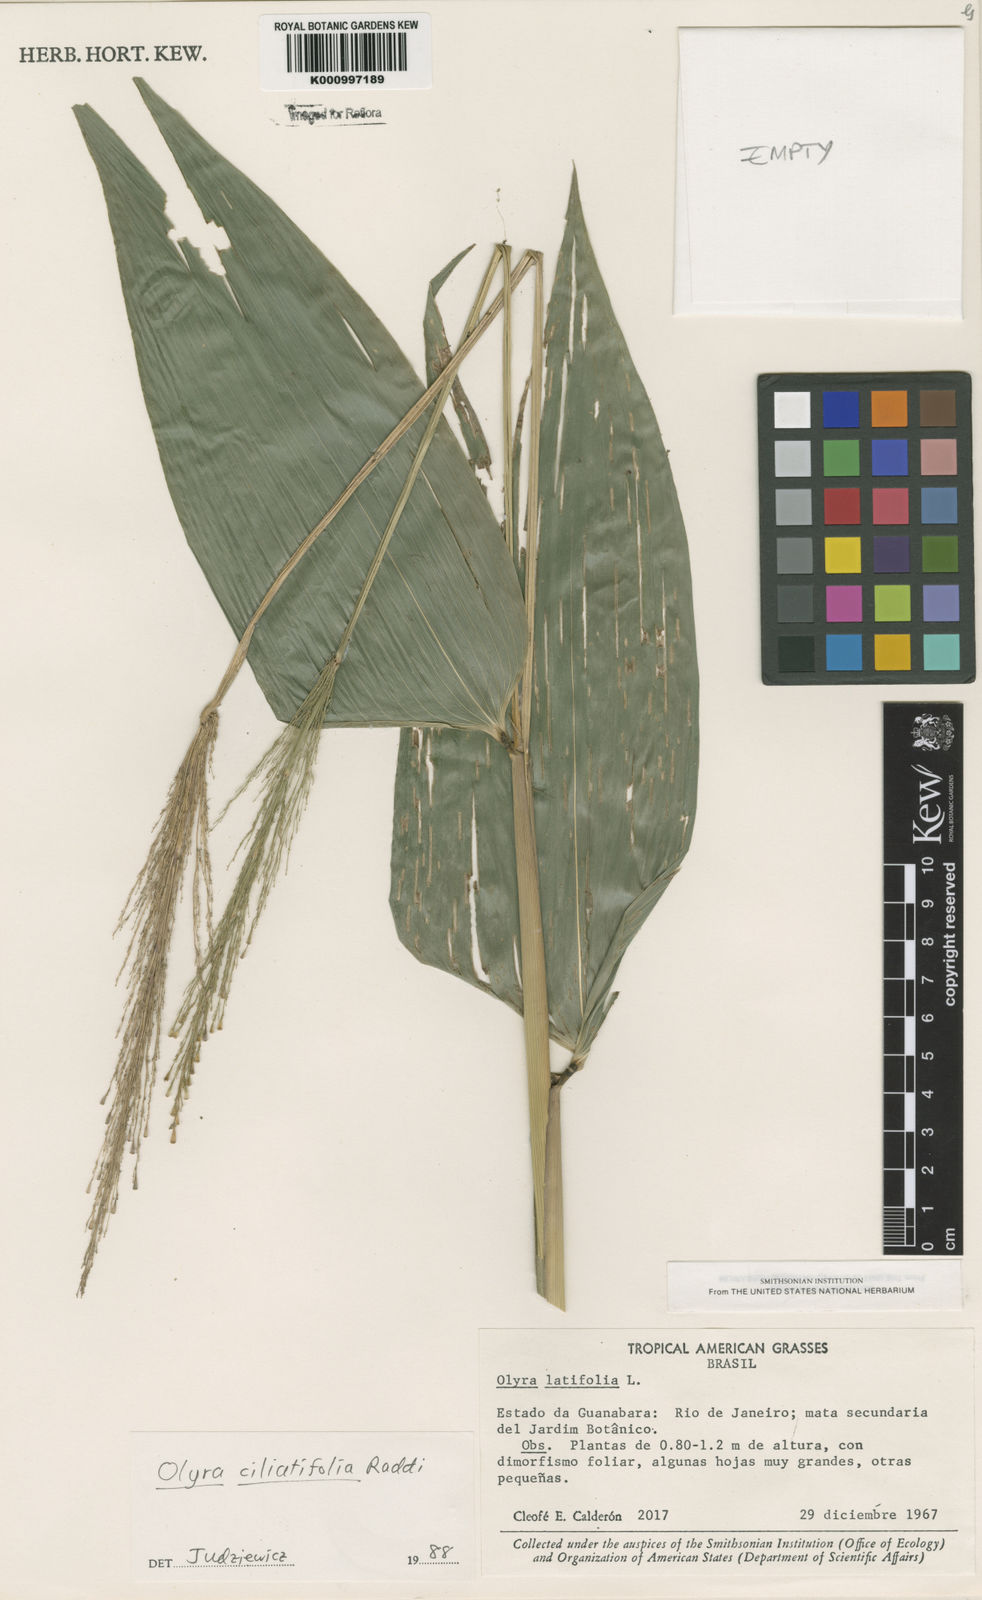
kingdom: Plantae
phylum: Tracheophyta
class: Liliopsida
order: Poales
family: Poaceae
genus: Olyra
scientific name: Olyra ciliatifolia
